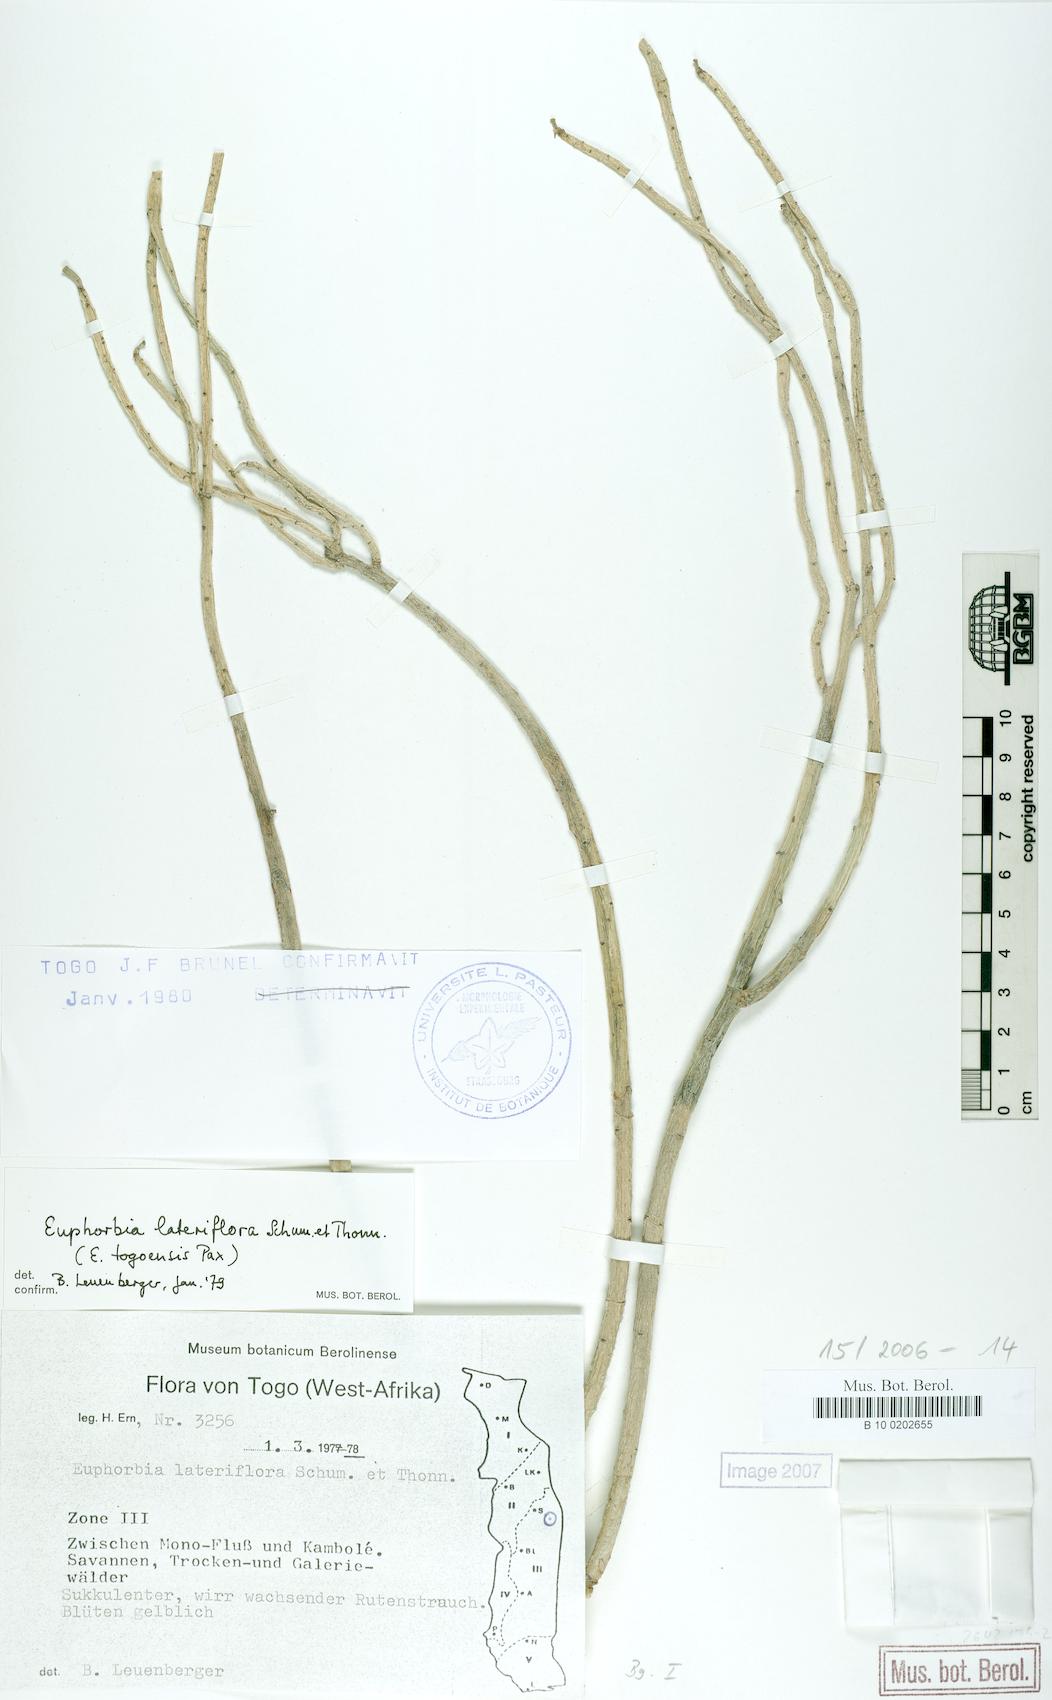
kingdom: Plantae
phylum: Tracheophyta
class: Magnoliopsida
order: Malpighiales
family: Euphorbiaceae
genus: Euphorbia
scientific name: Euphorbia lateriflora
